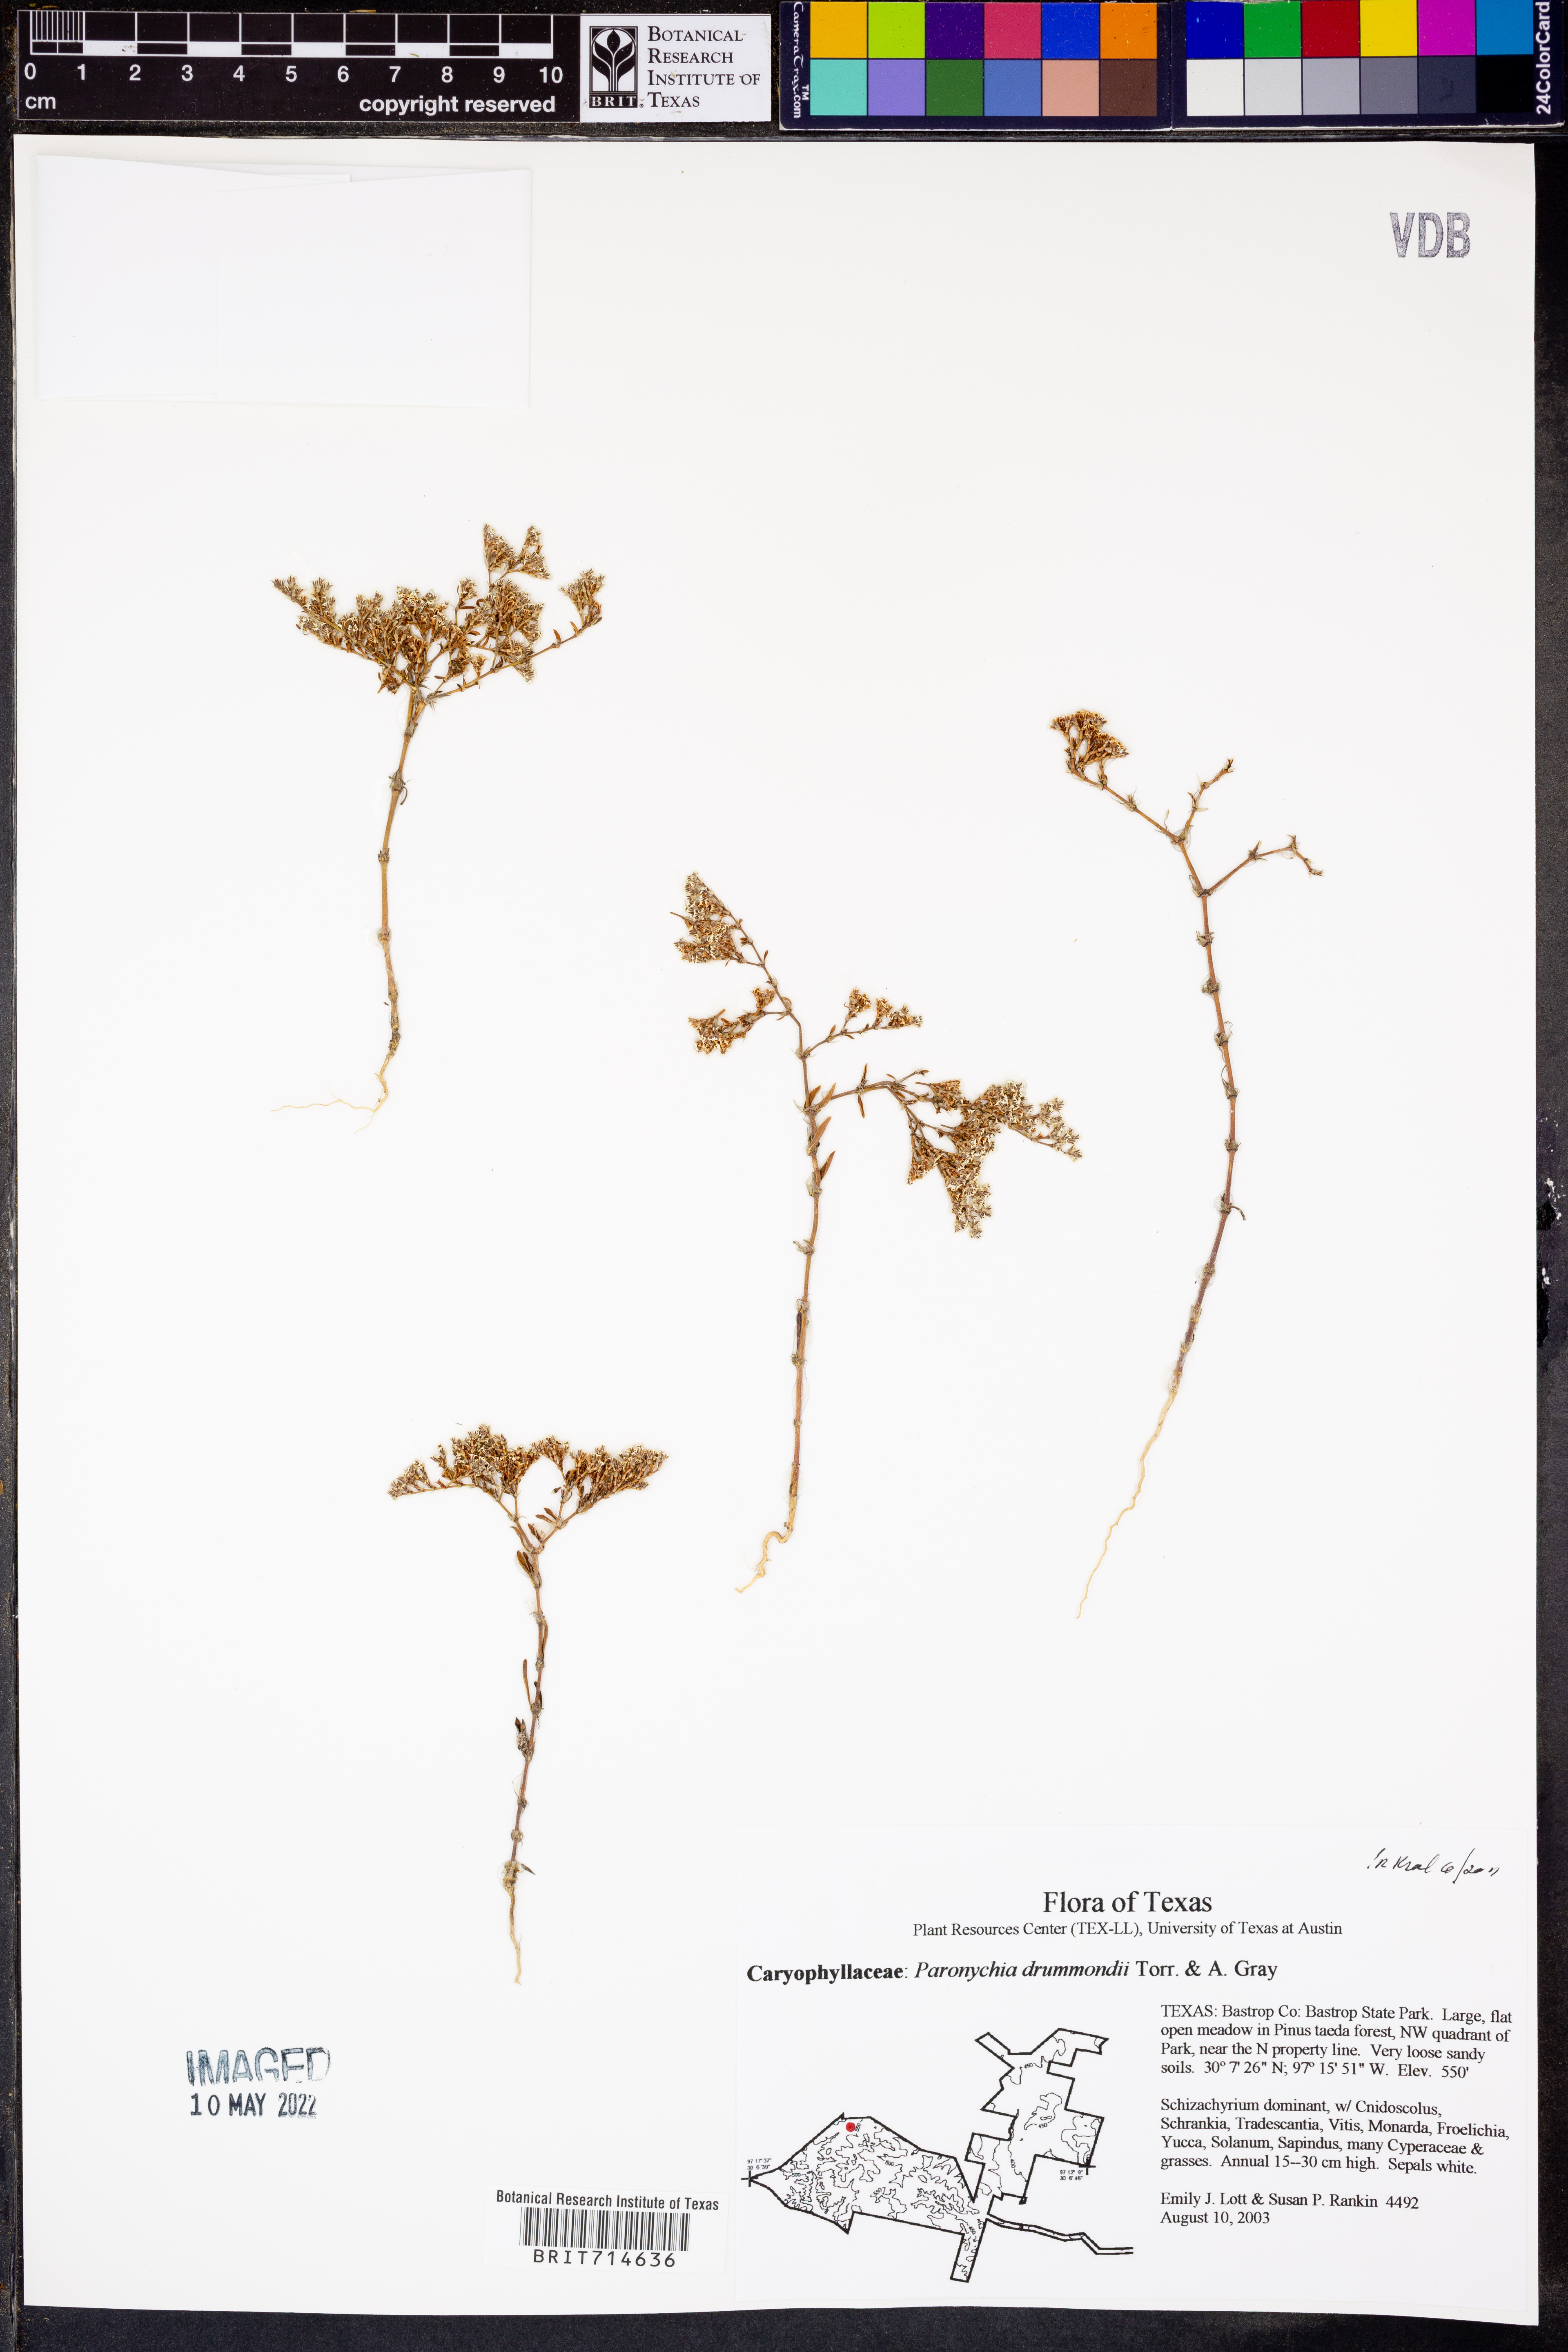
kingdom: Plantae
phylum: Tracheophyta
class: Magnoliopsida
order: Caryophyllales
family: Caryophyllaceae
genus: Paronychia
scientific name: Paronychia drummondii
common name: Drummond's nailwort
